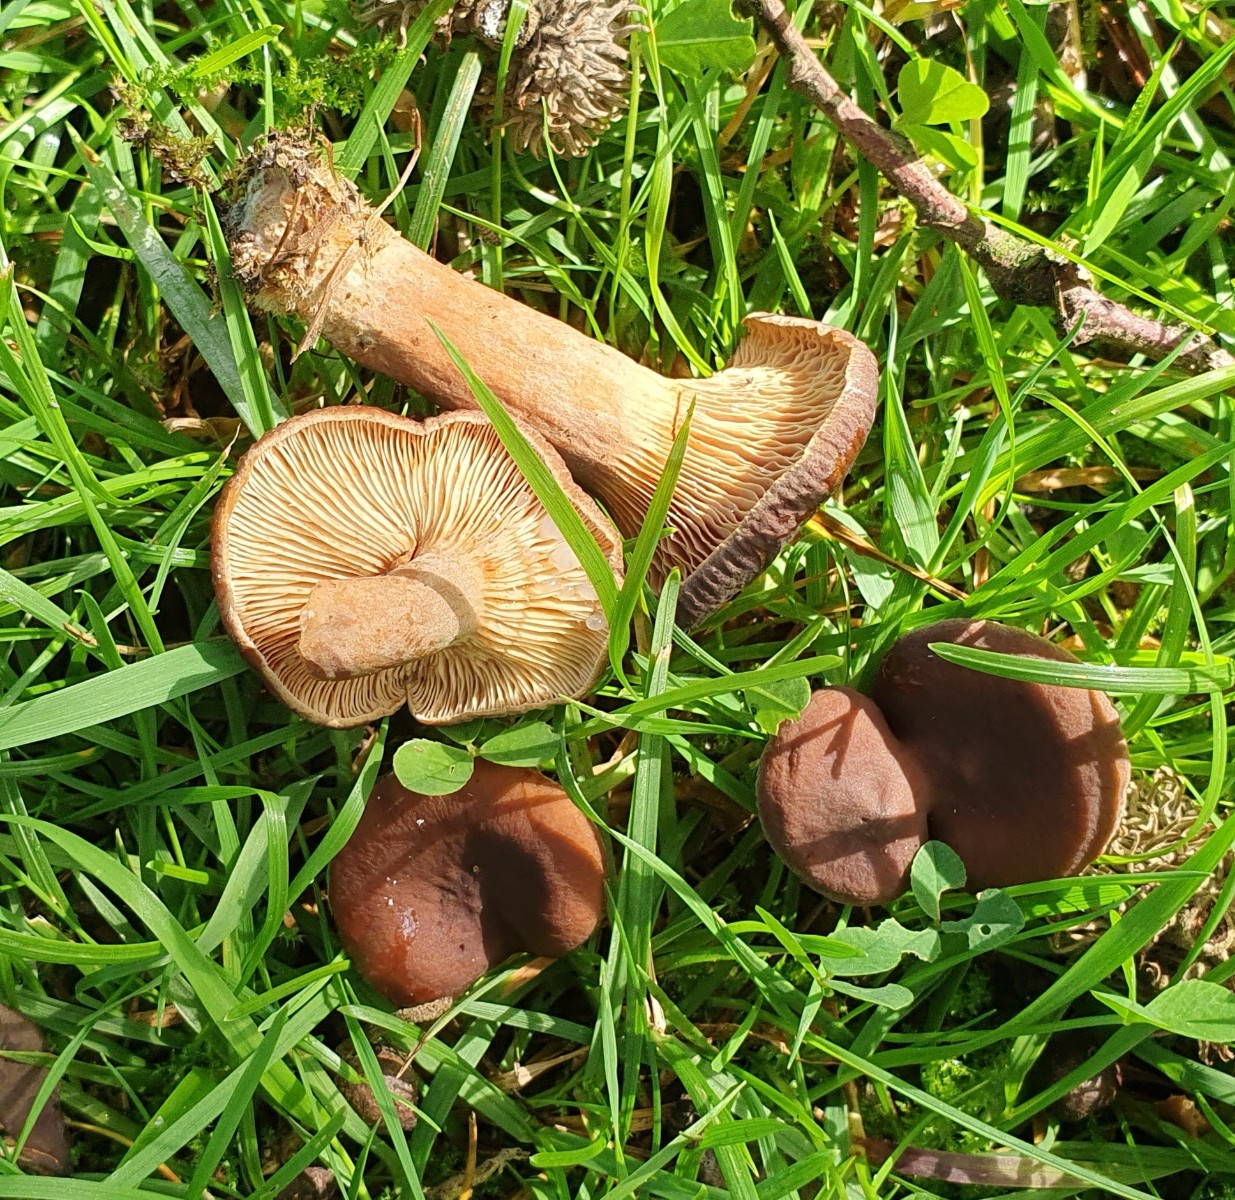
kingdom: Fungi
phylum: Basidiomycota
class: Agaricomycetes
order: Russulales
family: Russulaceae
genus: Lactarius
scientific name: Lactarius serifluus
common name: tæge-mælkehat
